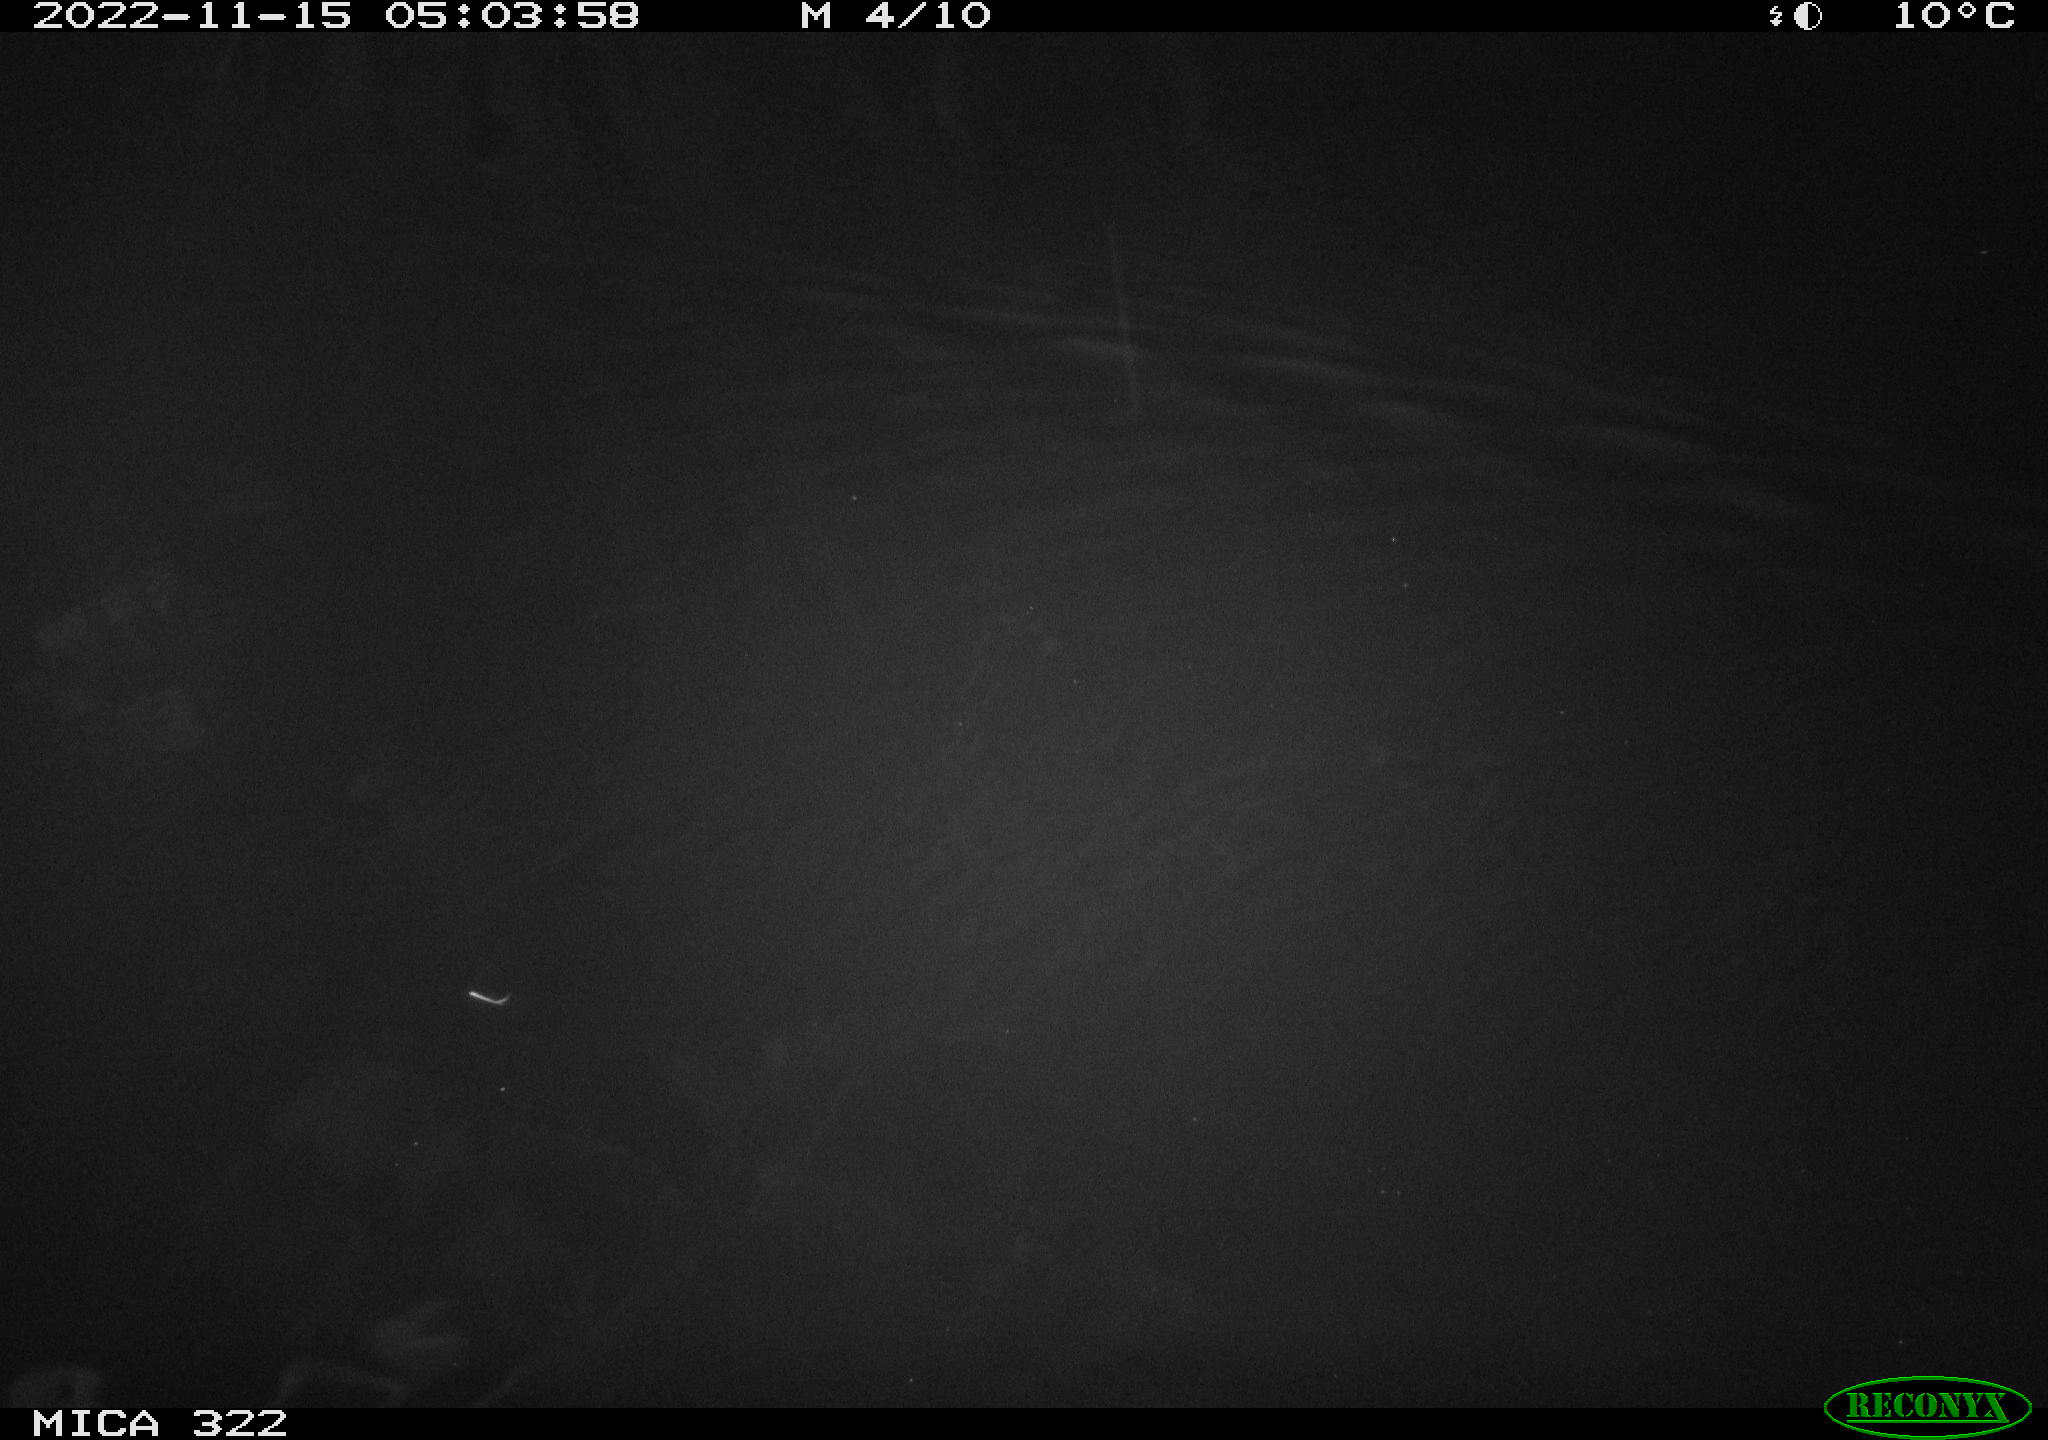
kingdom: Animalia
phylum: Chordata
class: Mammalia
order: Rodentia
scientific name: Rodentia
